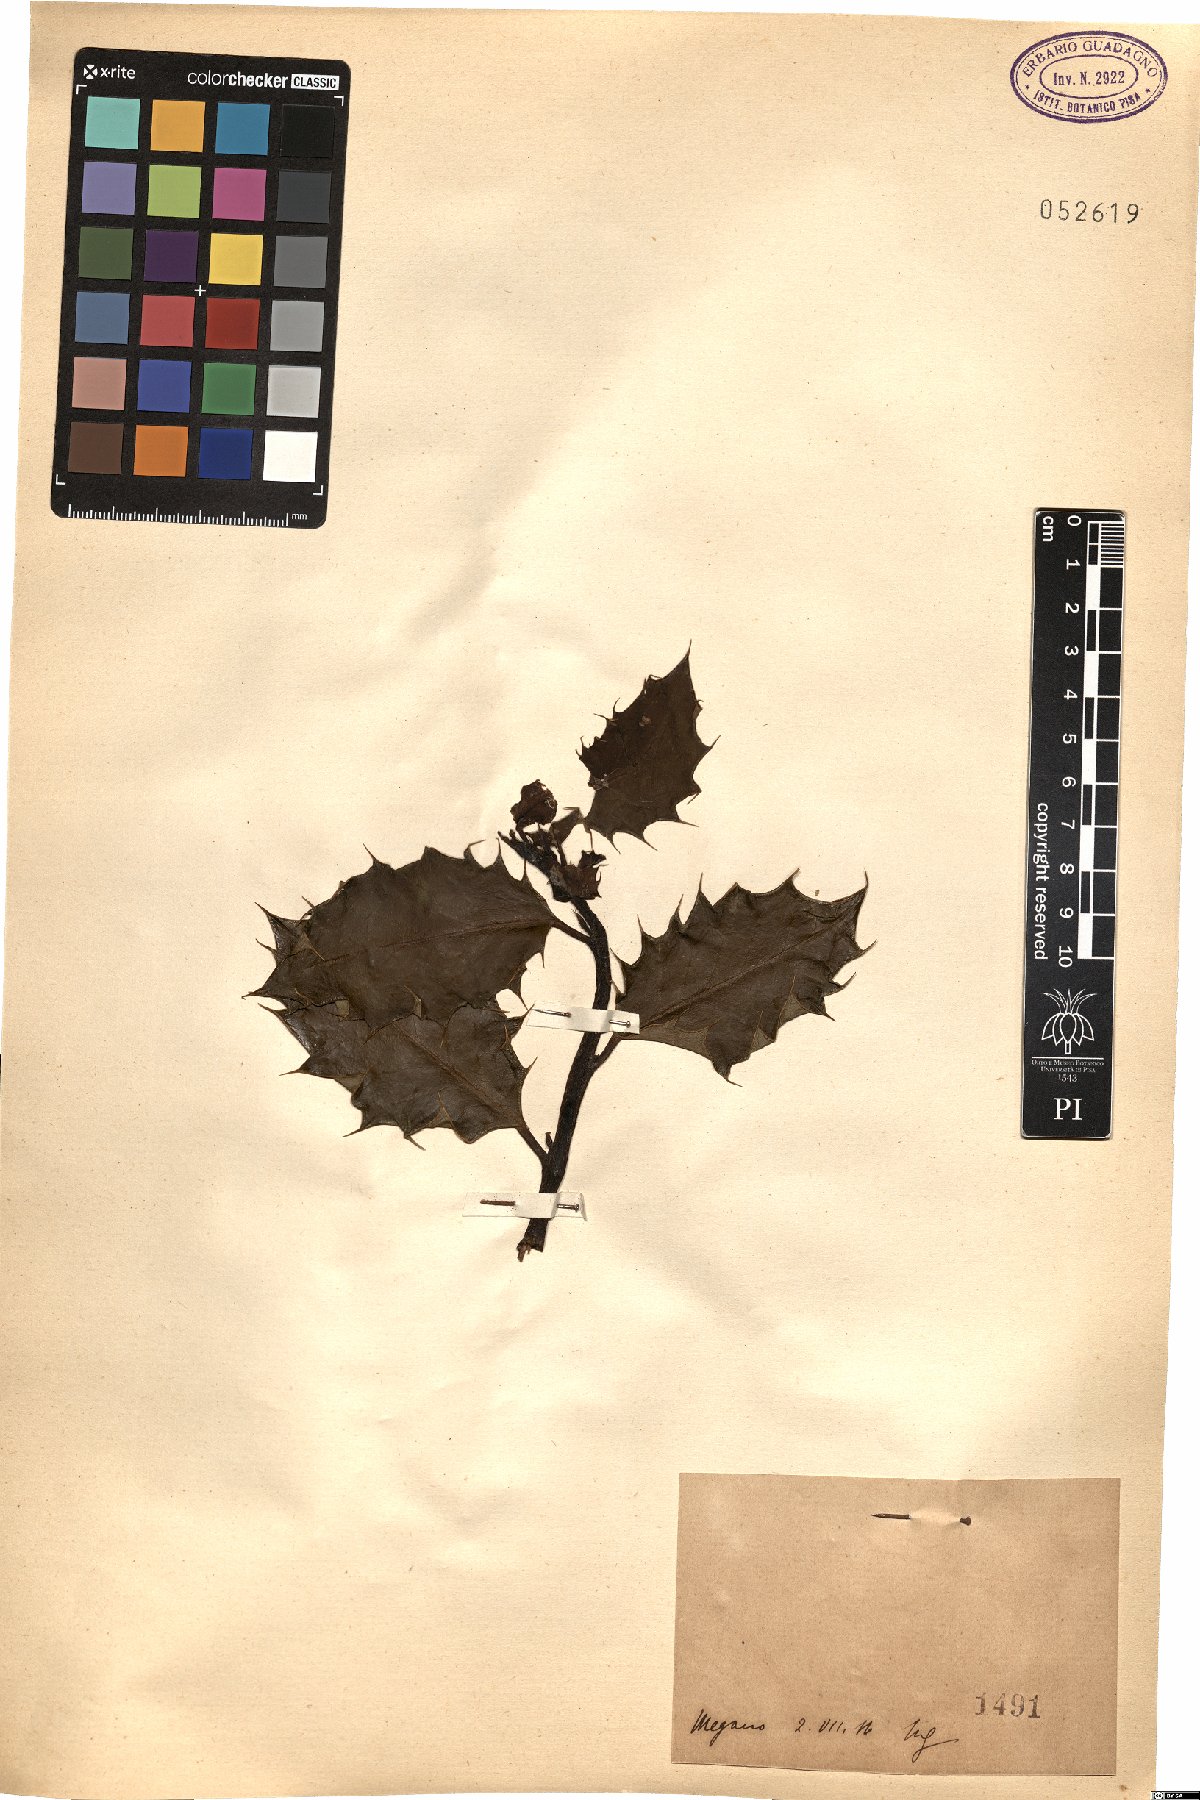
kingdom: Plantae
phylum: Tracheophyta
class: Magnoliopsida
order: Aquifoliales
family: Aquifoliaceae
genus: Ilex
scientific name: Ilex
